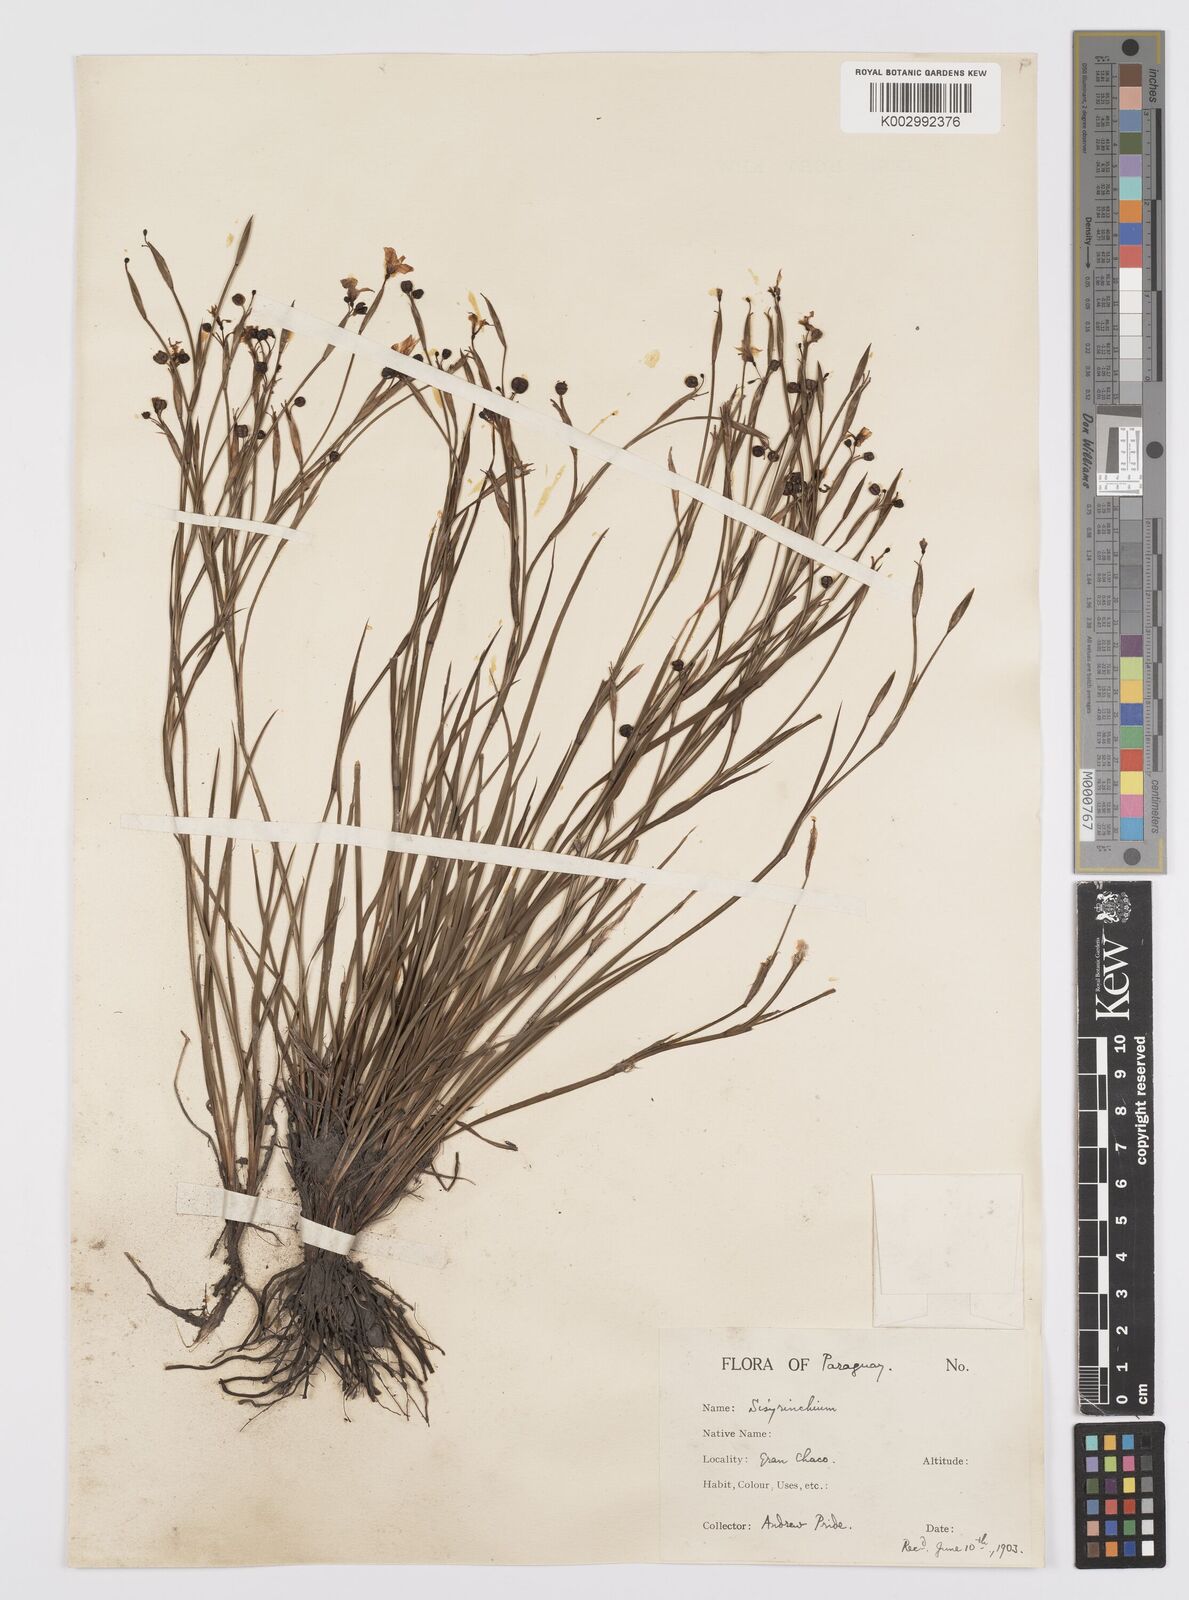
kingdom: Plantae
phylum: Tracheophyta
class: Liliopsida
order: Asparagales
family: Iridaceae
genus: Sisyrinchium
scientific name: Sisyrinchium pachyrhizum
